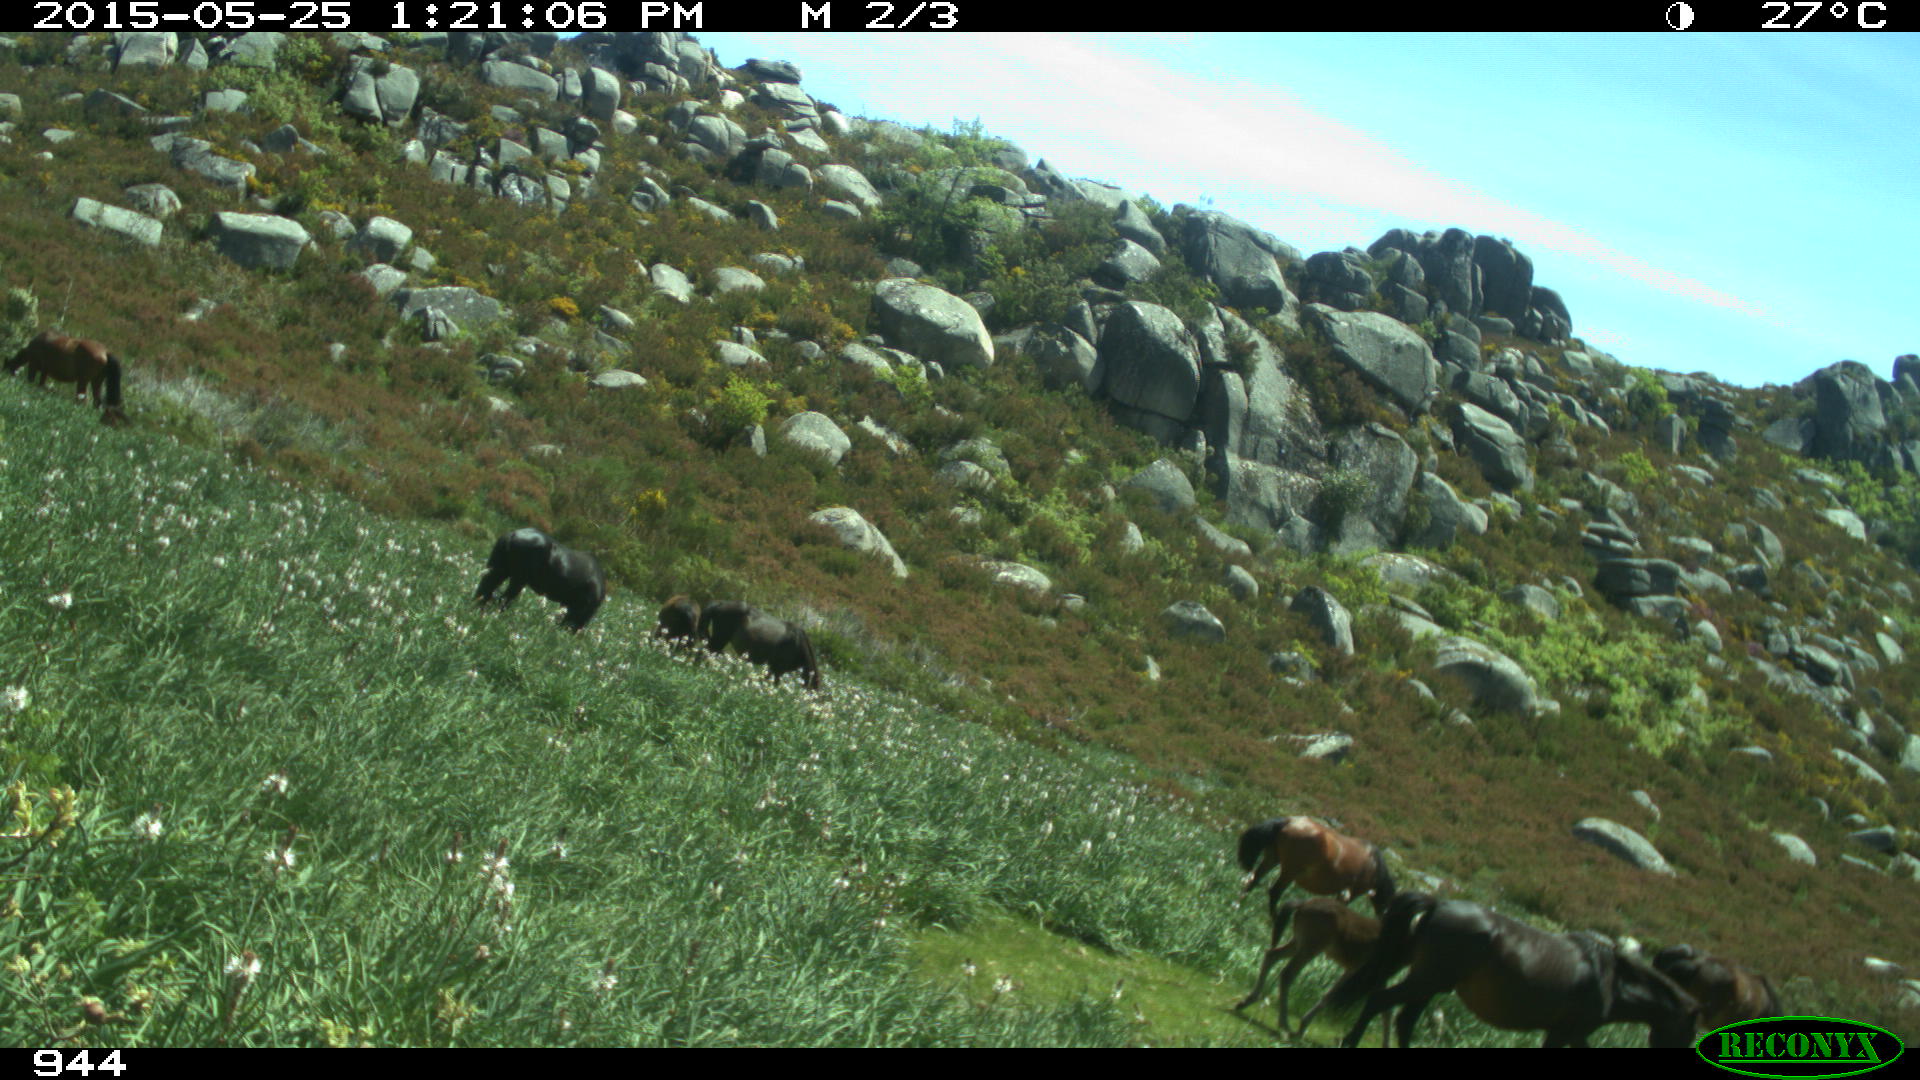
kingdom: Animalia
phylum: Chordata
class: Mammalia
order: Perissodactyla
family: Equidae
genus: Equus
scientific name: Equus caballus
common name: Horse
